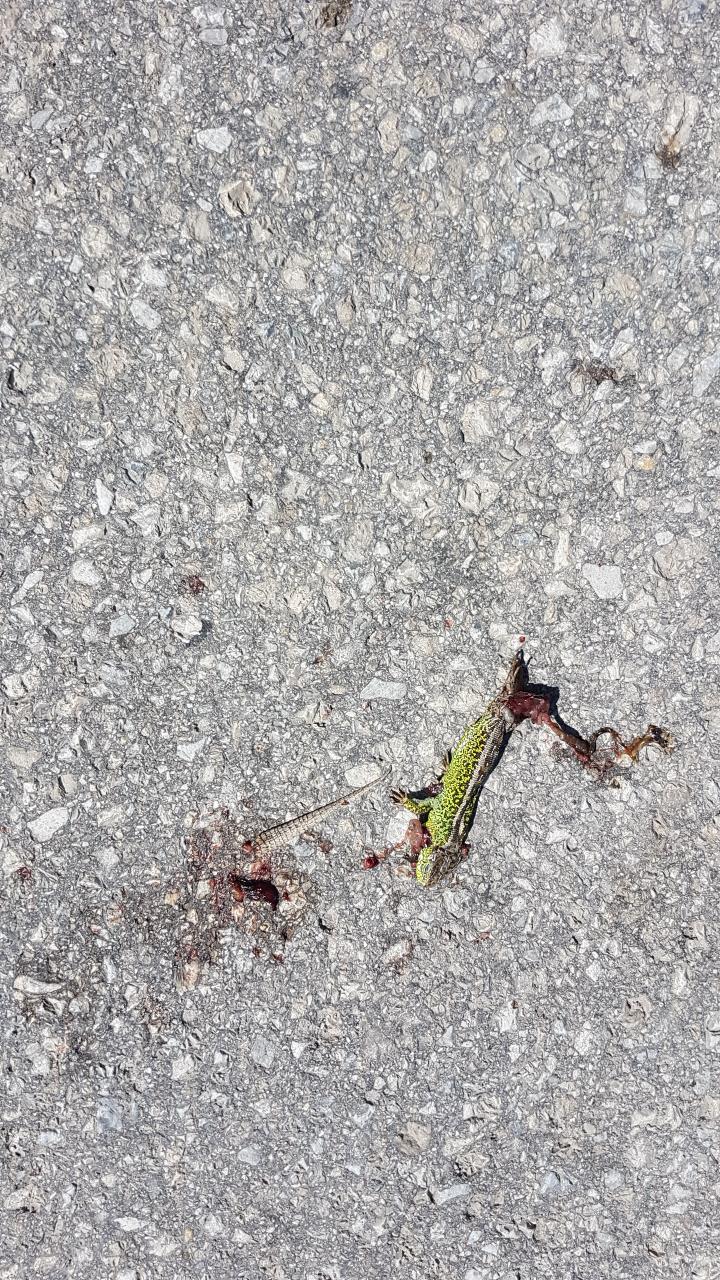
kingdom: Animalia
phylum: Chordata
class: Squamata
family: Lacertidae
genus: Lacerta
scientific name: Lacerta agilis
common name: Sand lizard
